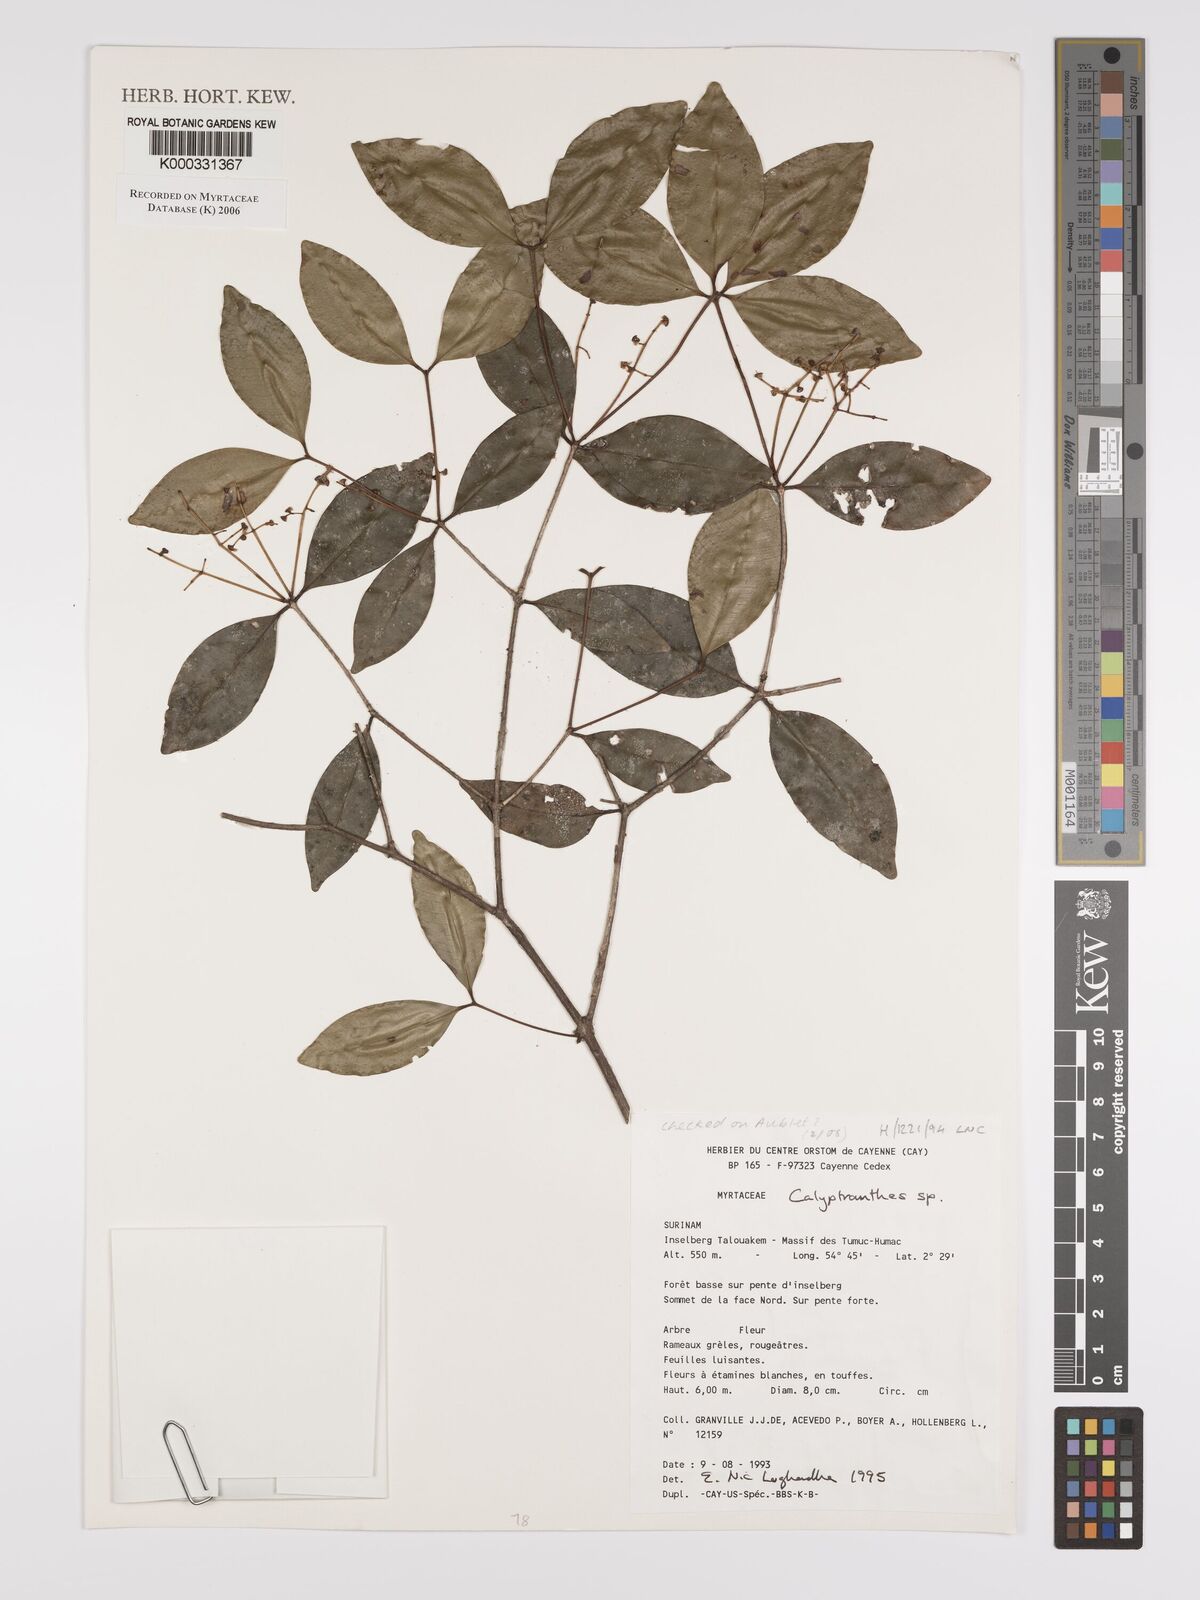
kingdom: Plantae
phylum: Tracheophyta
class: Magnoliopsida
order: Myrtales
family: Myrtaceae
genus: Calyptranthes
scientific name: Calyptranthes
